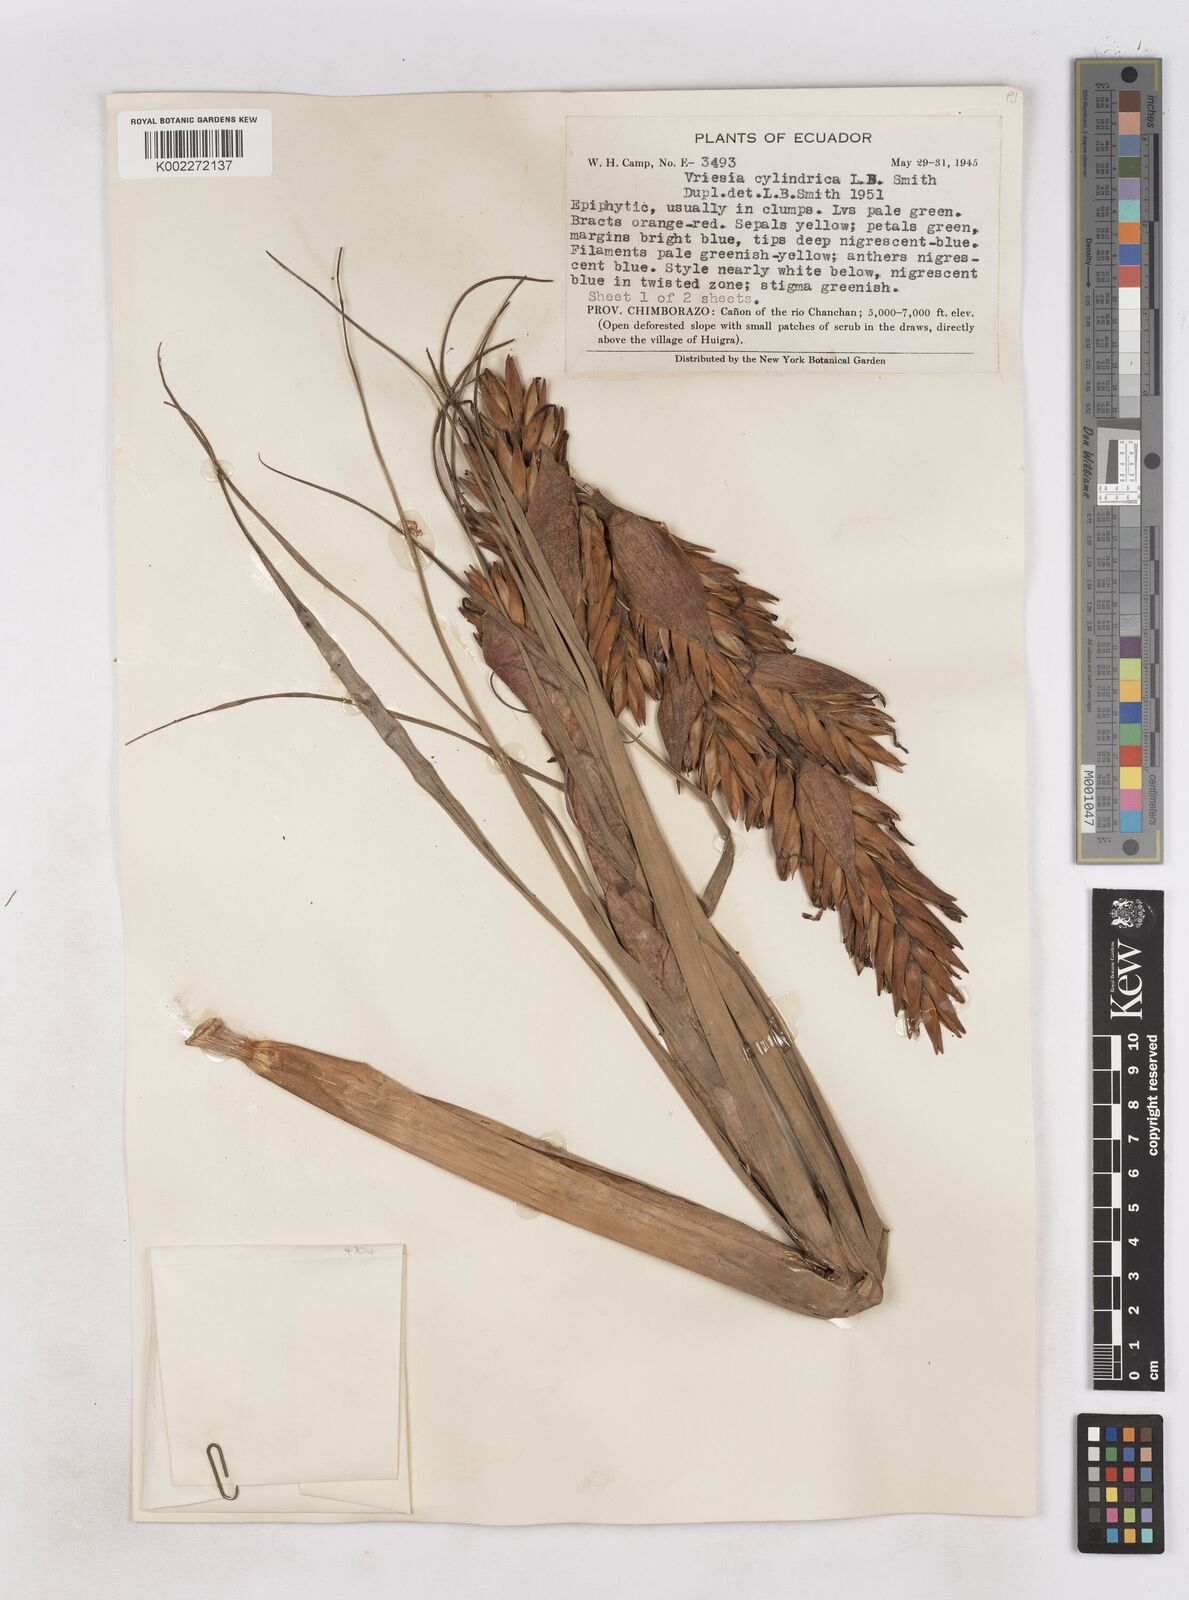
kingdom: Plantae
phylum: Tracheophyta
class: Liliopsida
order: Poales
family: Bromeliaceae
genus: Vriesea
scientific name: Vriesea cylindrica
